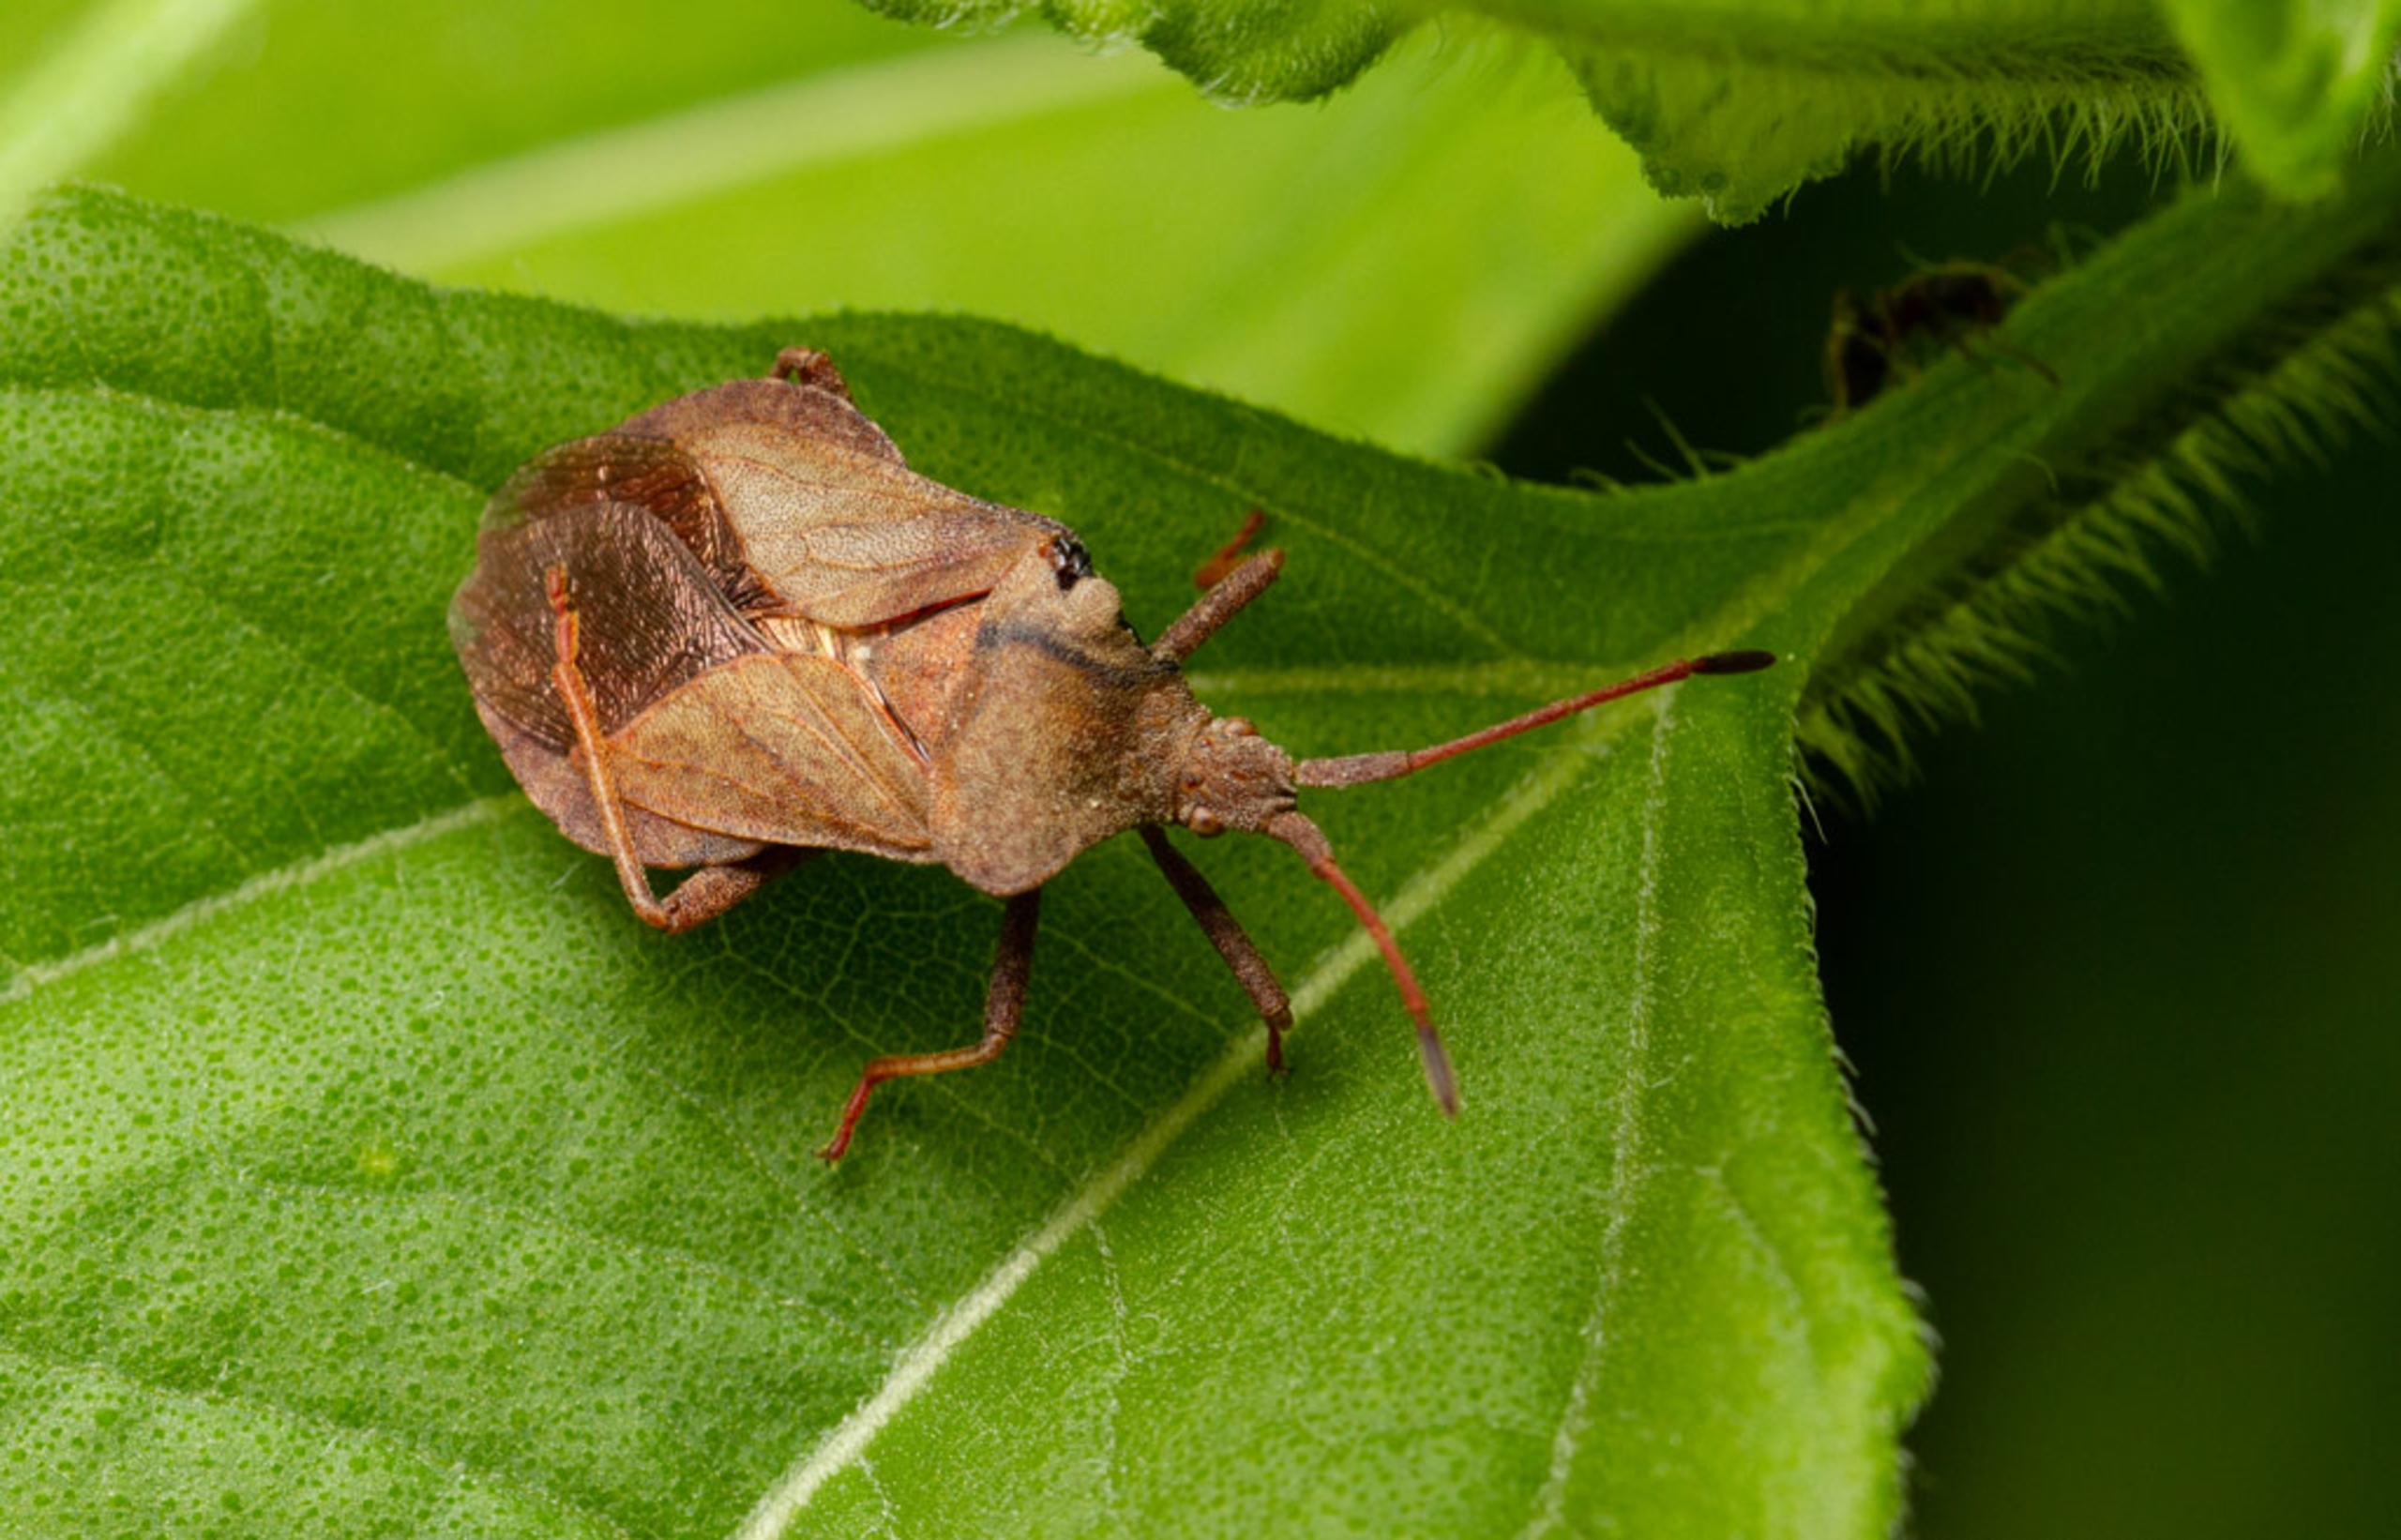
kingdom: Animalia
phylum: Arthropoda
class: Insecta
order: Hemiptera
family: Coreidae
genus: Coreus
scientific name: Coreus marginatus
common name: Skræppetæge
